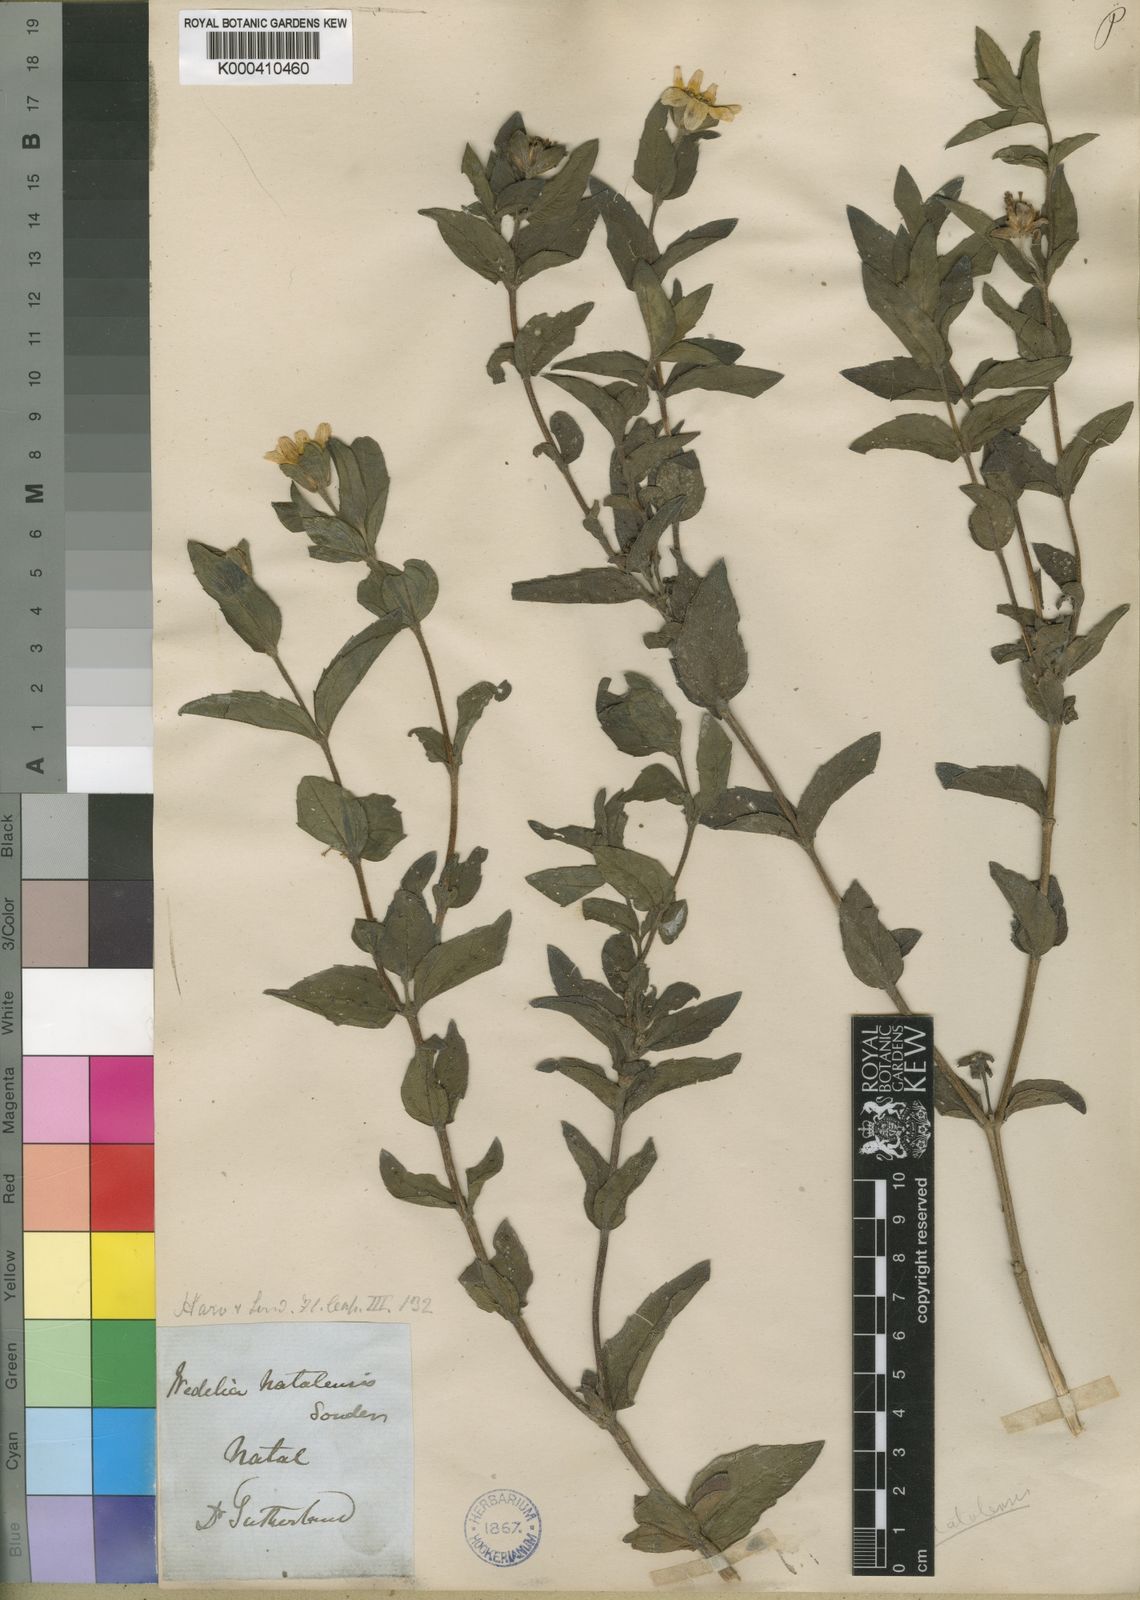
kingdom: Plantae
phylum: Tracheophyta
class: Magnoliopsida
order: Asterales
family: Asteraceae
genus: Aspilia
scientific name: Aspilia natalensis
